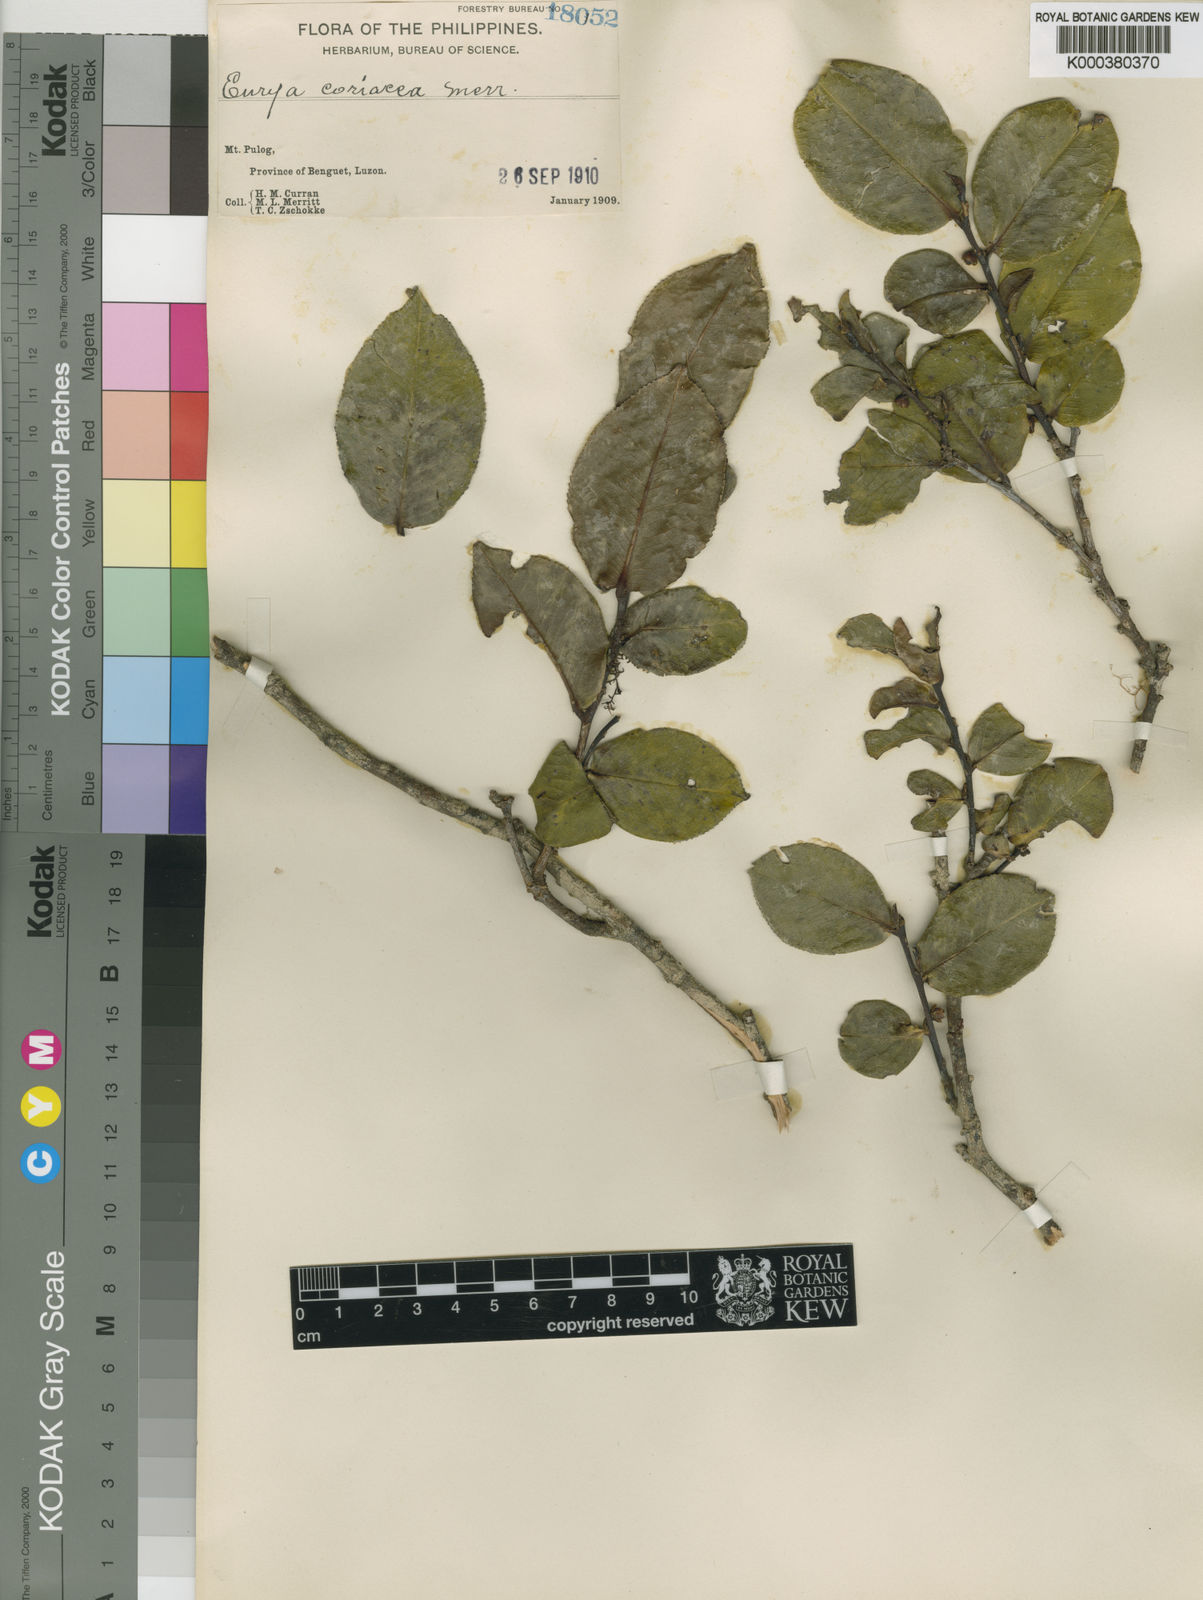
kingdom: Plantae
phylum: Tracheophyta
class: Magnoliopsida
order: Ericales
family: Pentaphylacaceae
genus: Eurya
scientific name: Eurya coriacea
